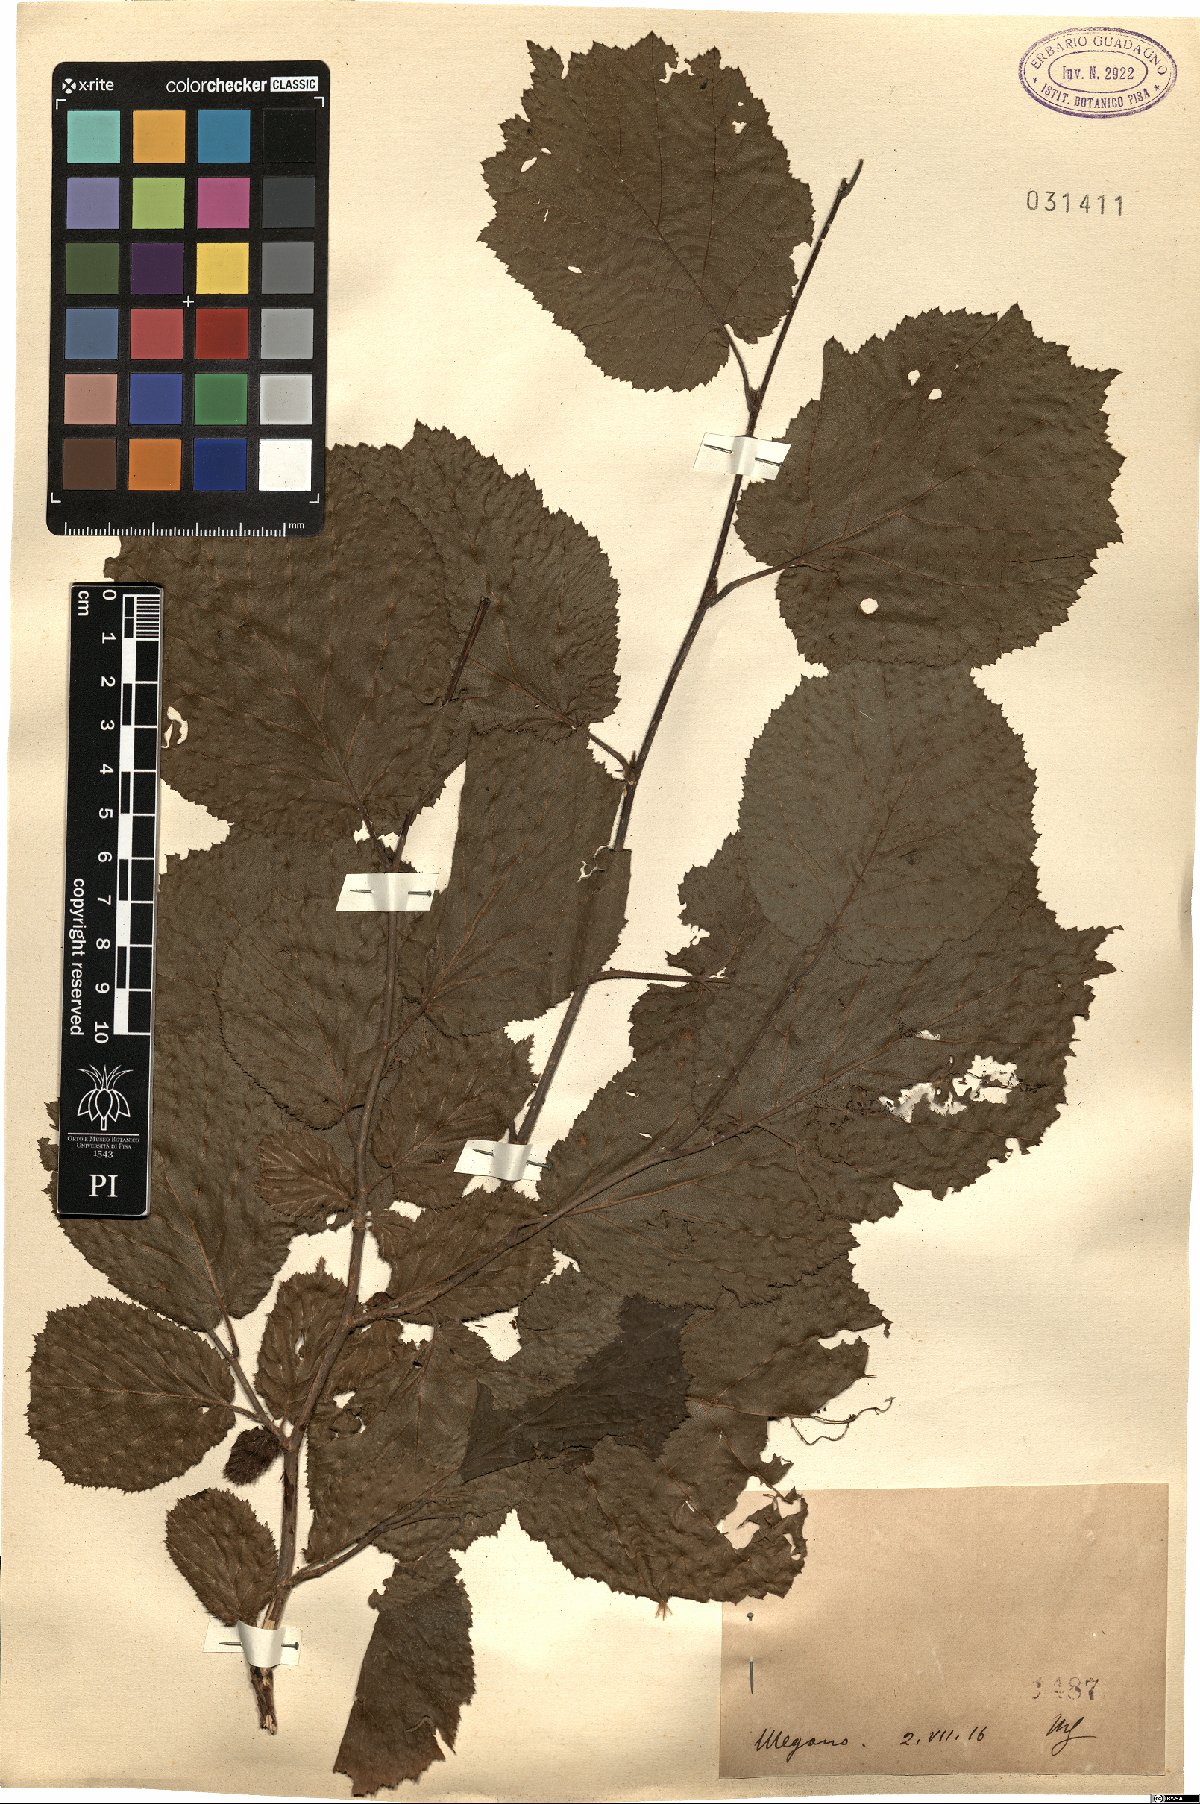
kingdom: Plantae
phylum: Tracheophyta
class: Magnoliopsida
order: Fagales
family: Betulaceae
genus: Corylus
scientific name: Corylus
